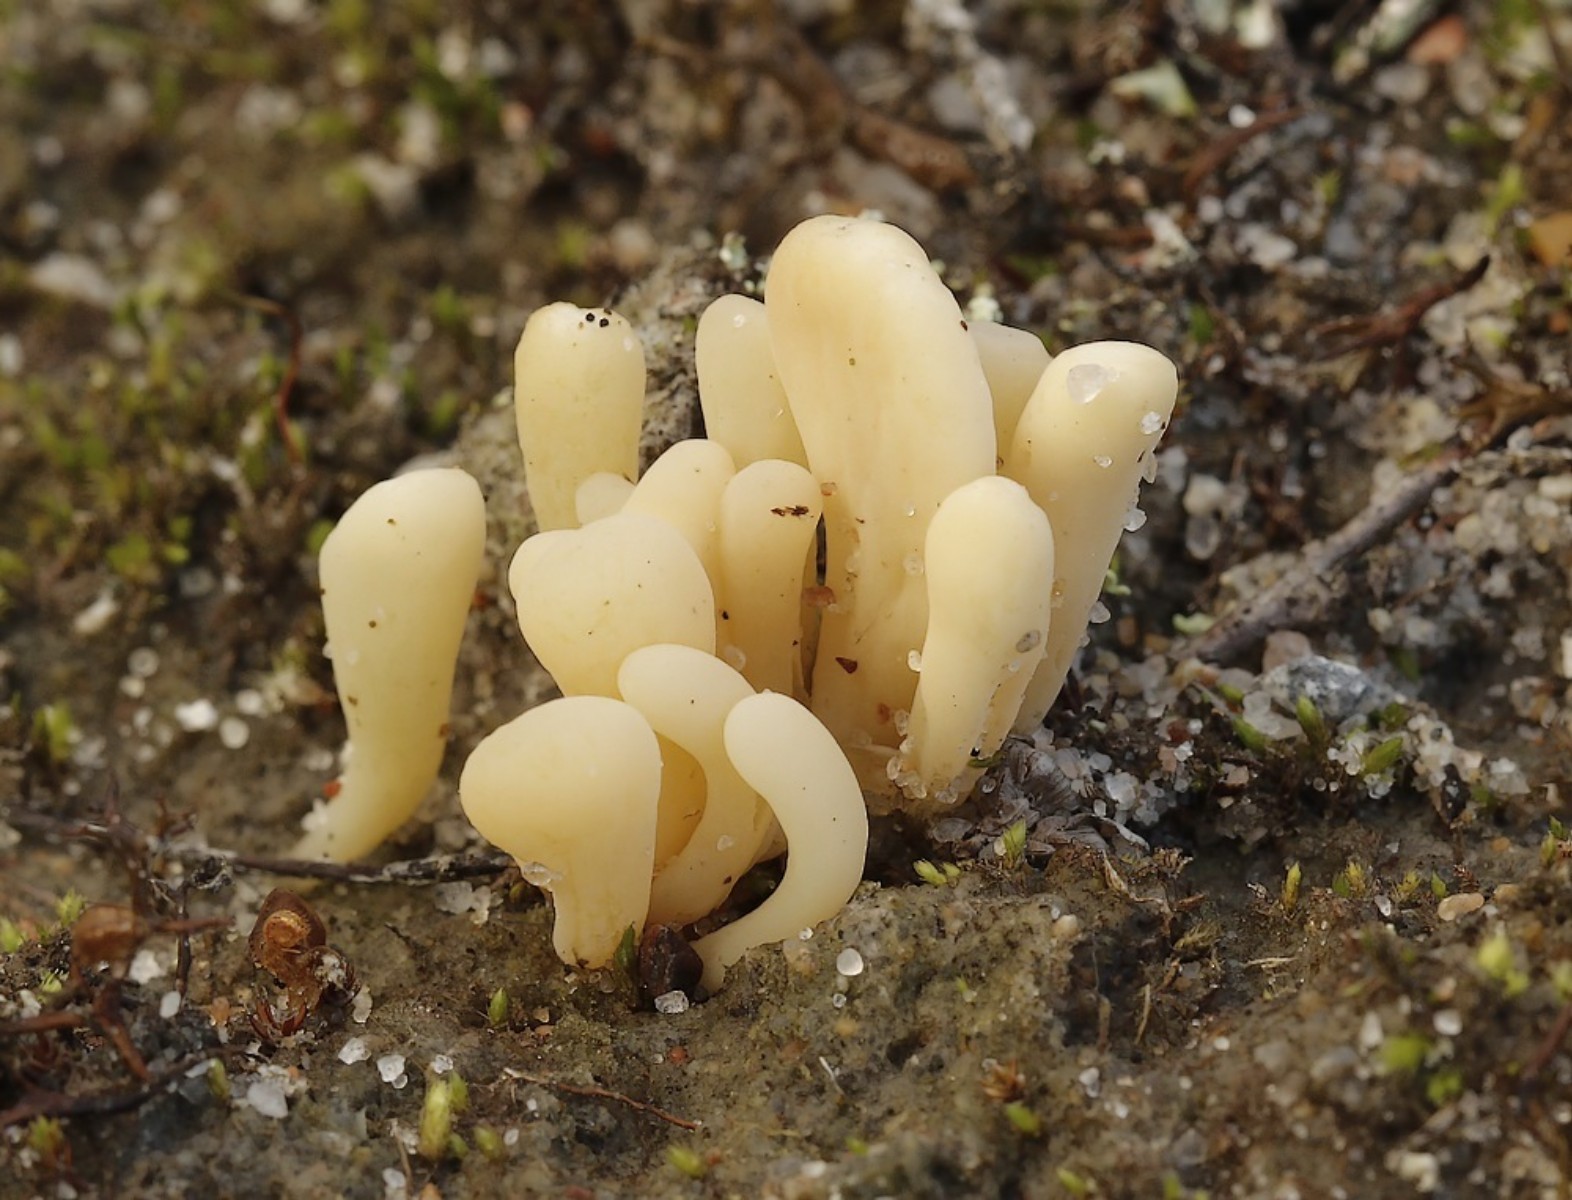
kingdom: Fungi
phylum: Basidiomycota
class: Agaricomycetes
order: Agaricales
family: Clavariaceae
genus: Clavaria
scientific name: Clavaria argillacea
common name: lerfarvet køllesvamp
